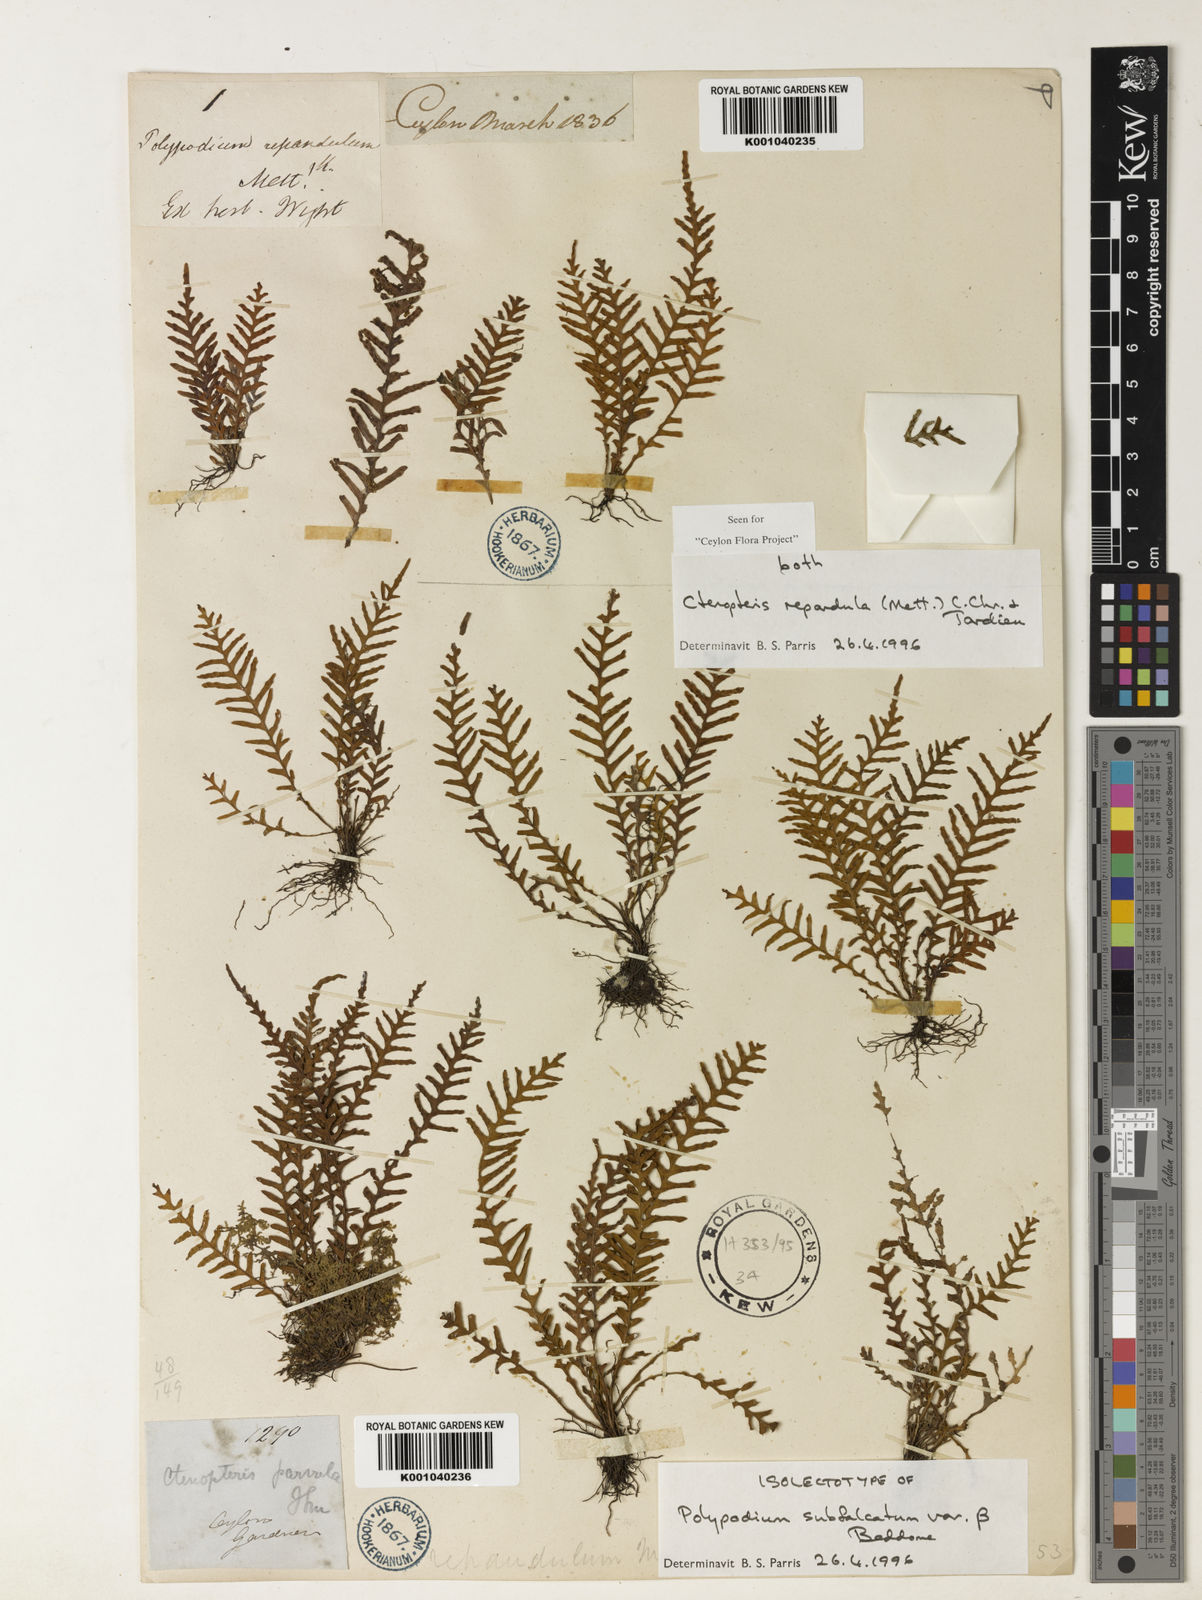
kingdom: Plantae
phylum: Tracheophyta
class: Polypodiopsida
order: Polypodiales
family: Polypodiaceae
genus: Tomophyllum
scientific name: Tomophyllum repandulum
